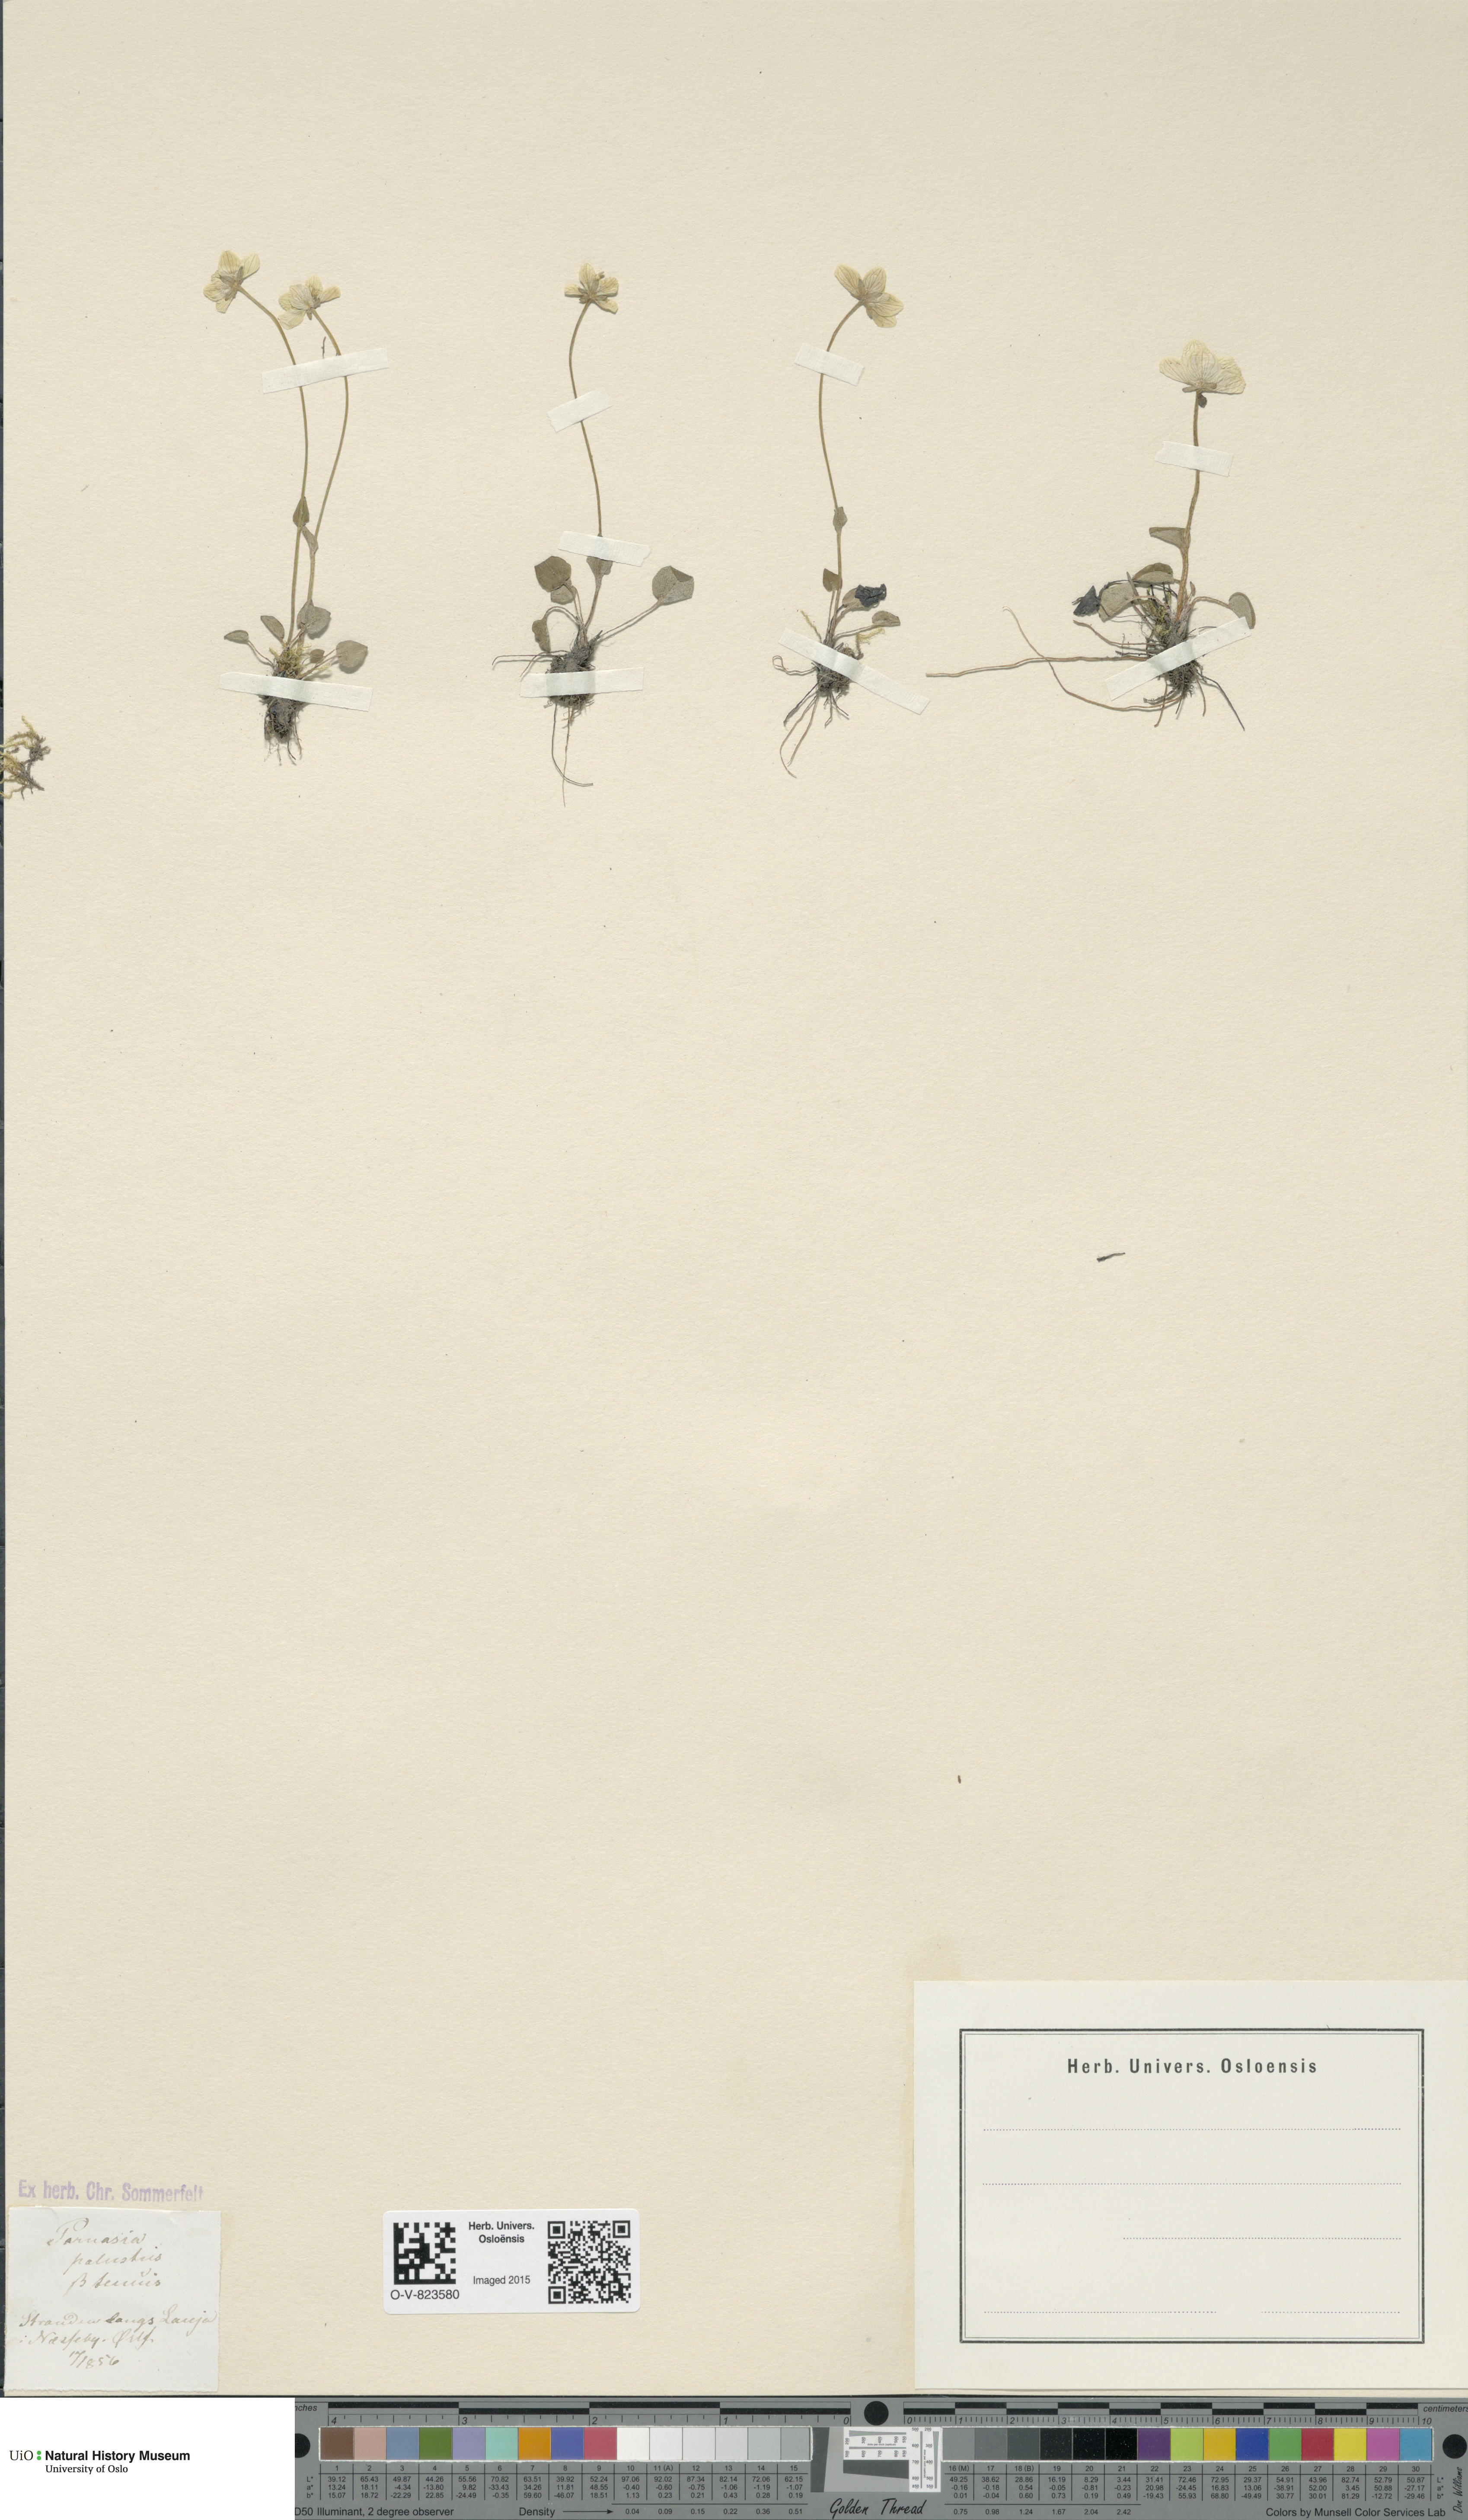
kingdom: Plantae
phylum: Tracheophyta
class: Magnoliopsida
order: Celastrales
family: Parnassiaceae
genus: Parnassia
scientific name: Parnassia palustris
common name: Grass-of-parnassus
